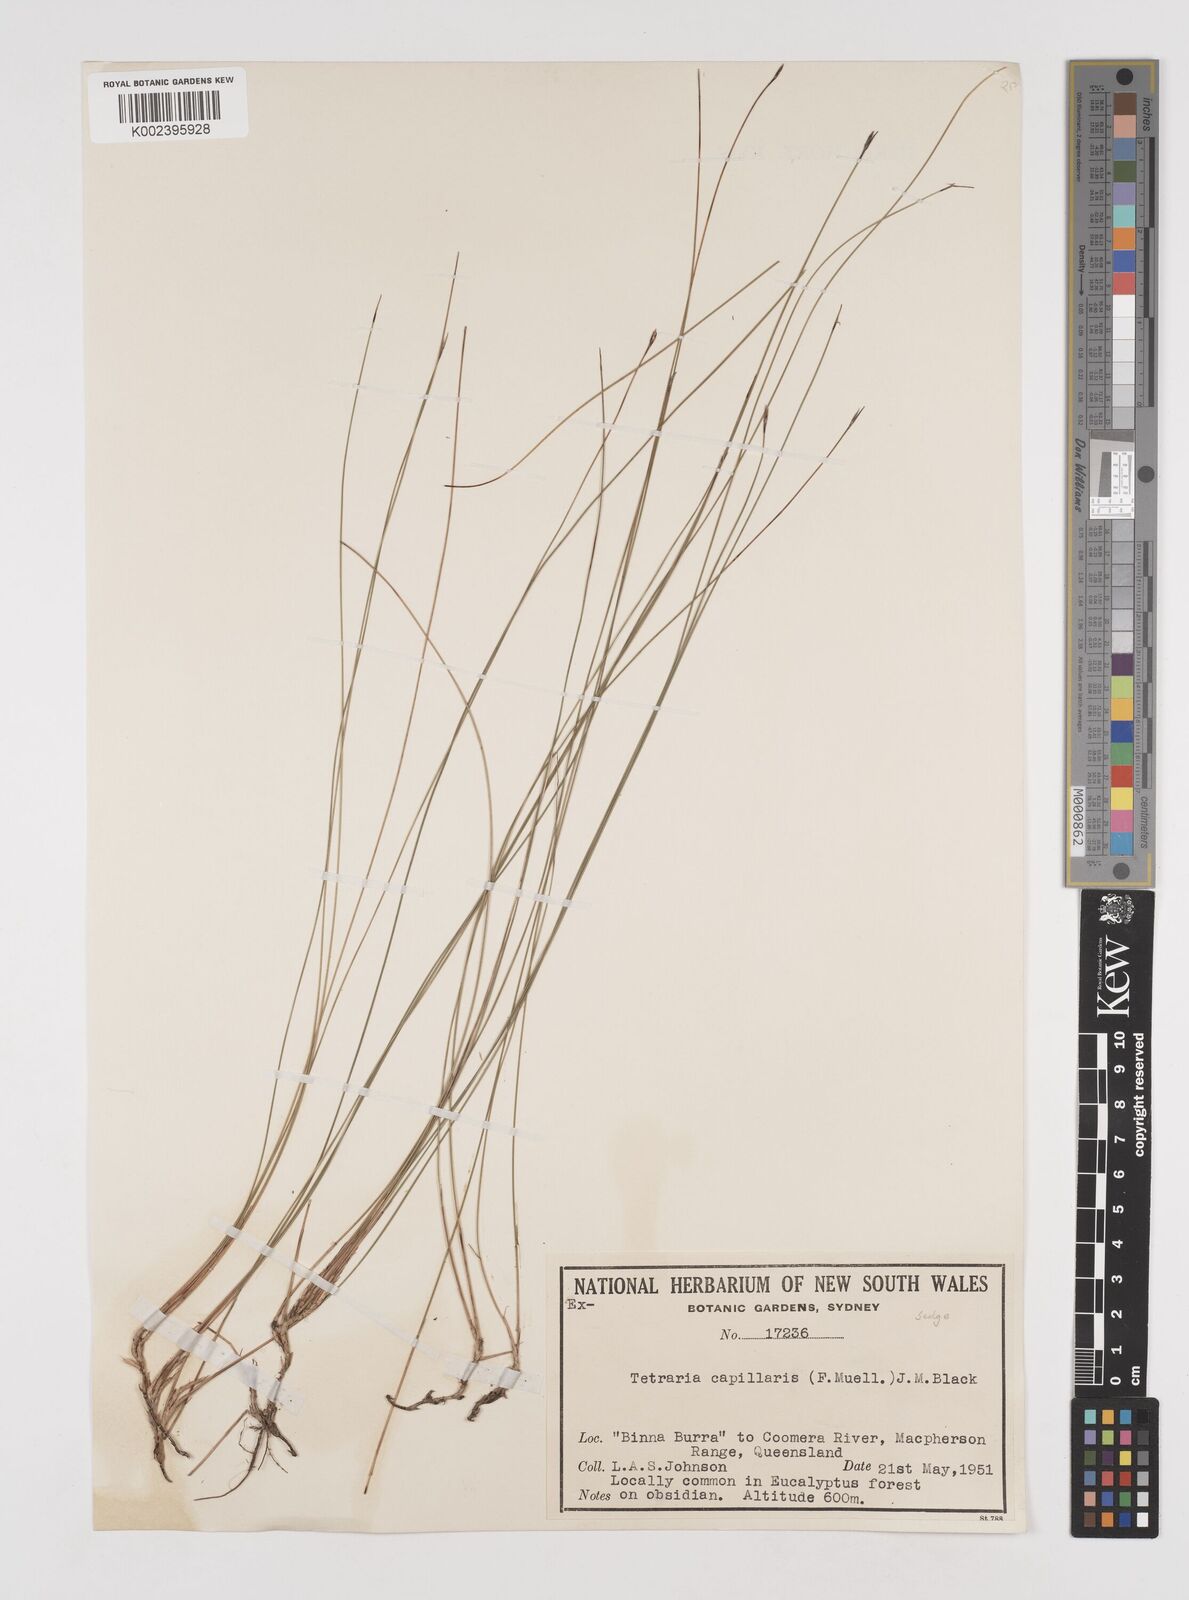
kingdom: Plantae
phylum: Tracheophyta
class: Liliopsida
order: Poales
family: Cyperaceae
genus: Tetraria
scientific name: Tetraria capillaris
